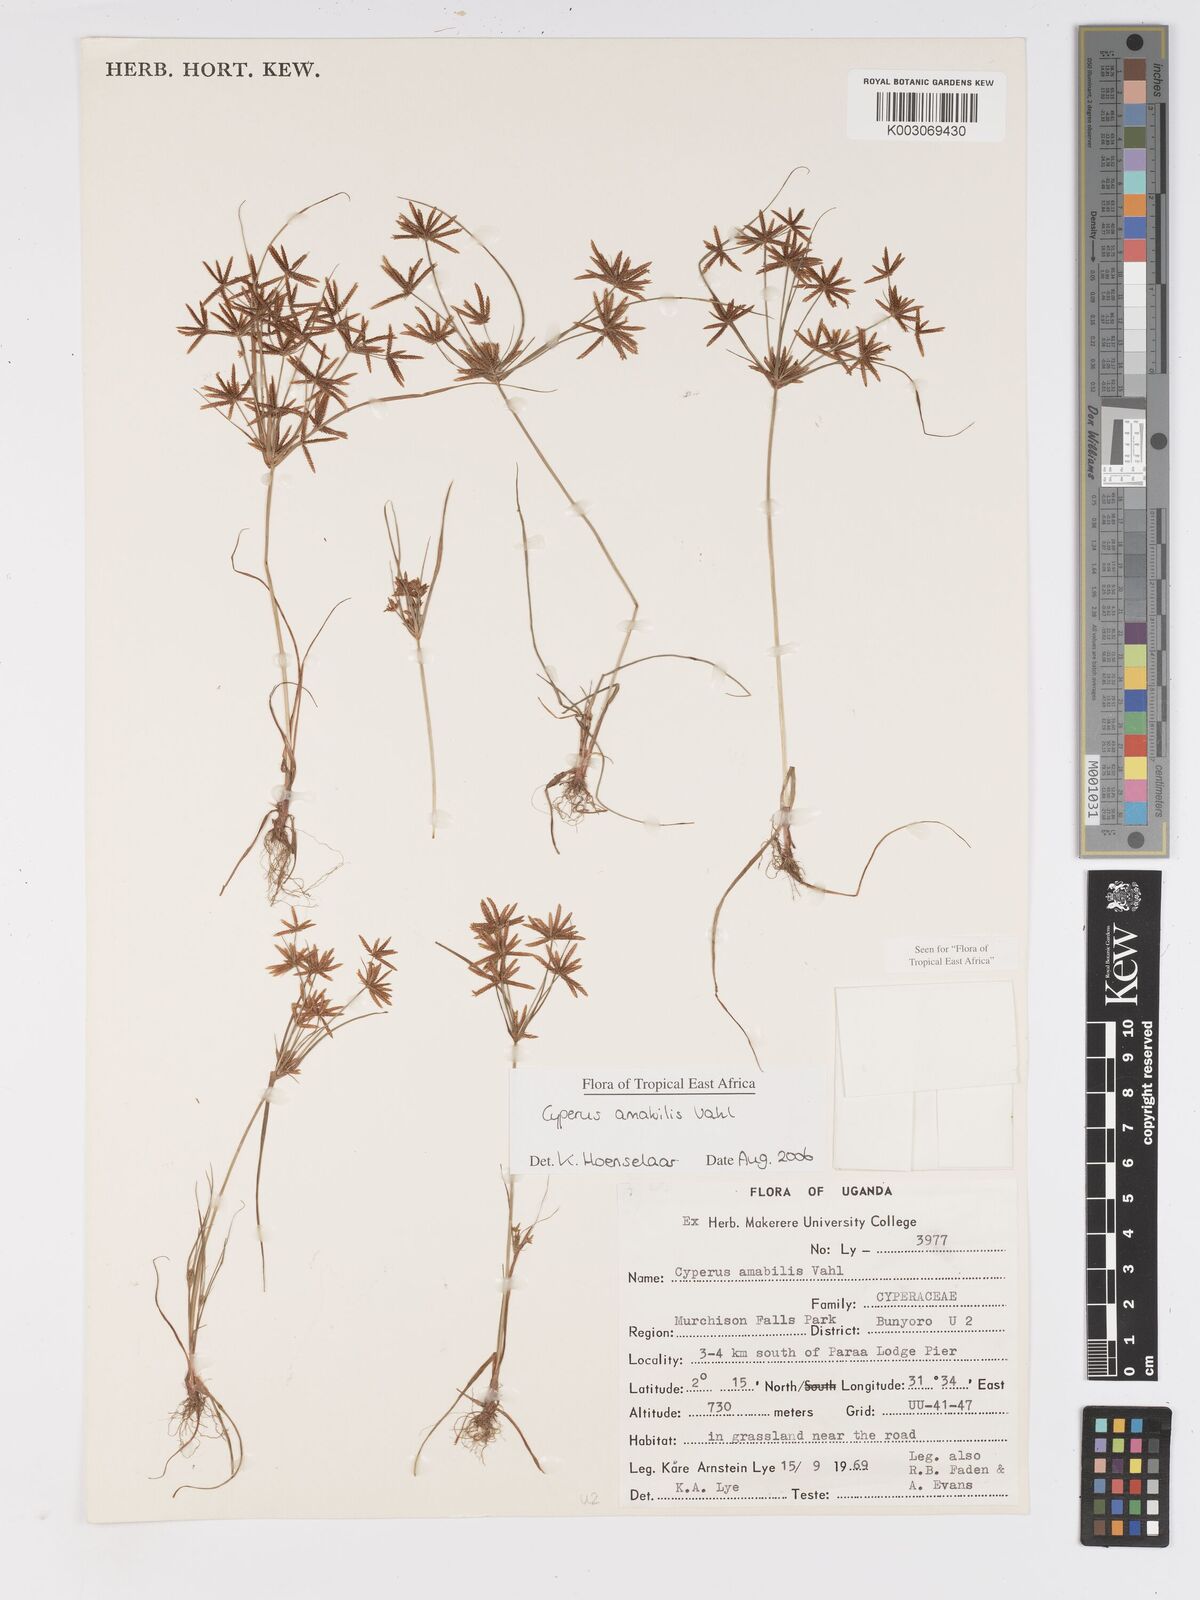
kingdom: Plantae
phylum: Tracheophyta
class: Liliopsida
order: Poales
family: Cyperaceae
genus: Cyperus
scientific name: Cyperus amabilis
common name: Foothill flat sedge
